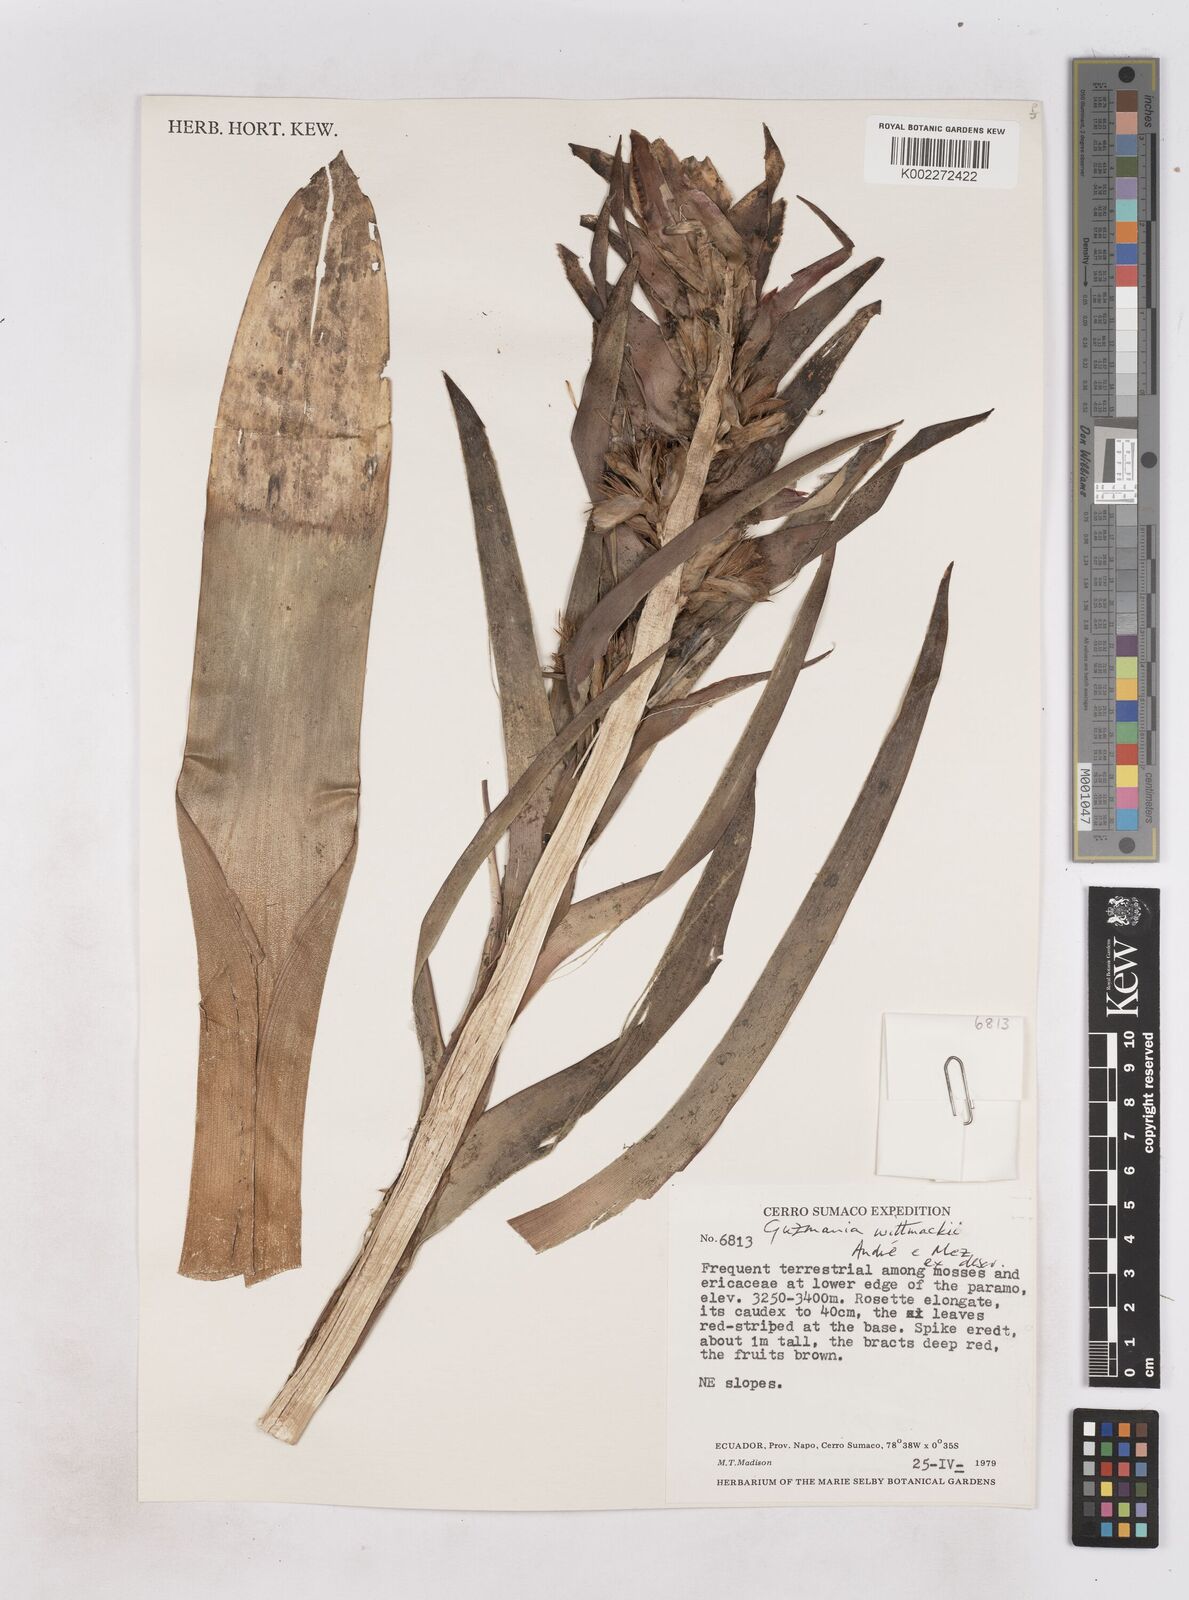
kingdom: Plantae
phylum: Tracheophyta
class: Liliopsida
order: Poales
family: Bromeliaceae
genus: Guzmania
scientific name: Guzmania wittmackii
